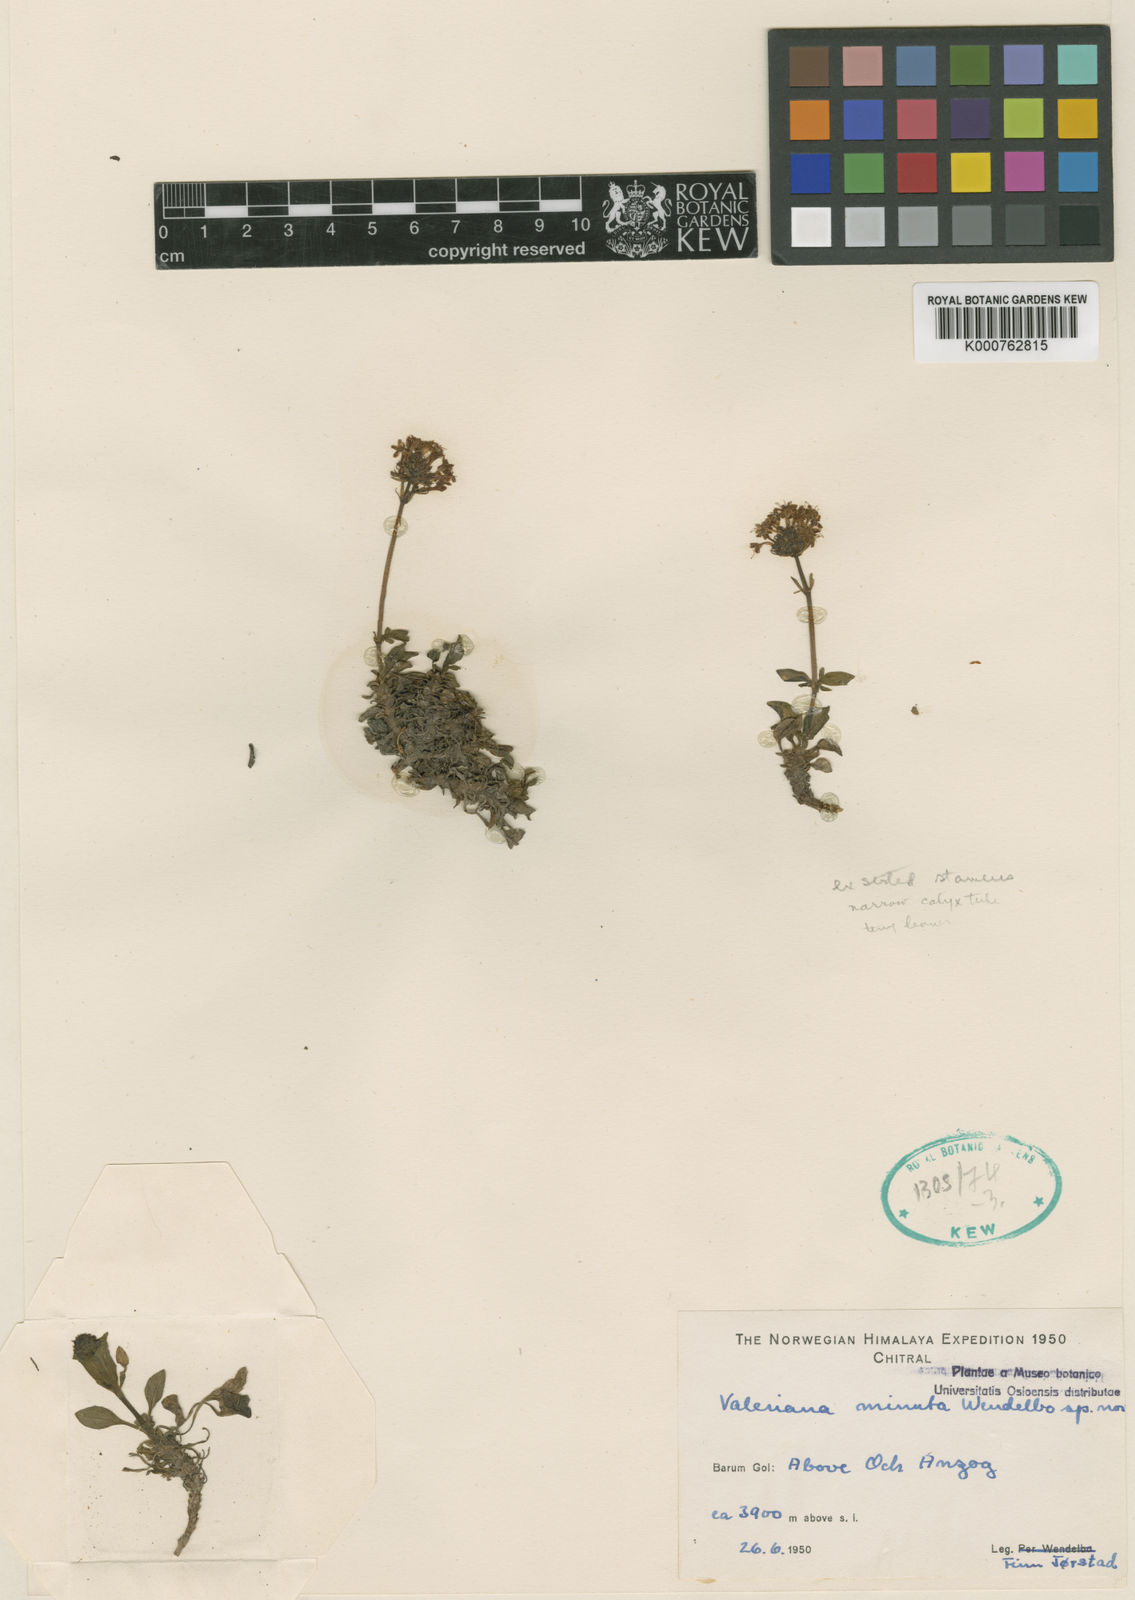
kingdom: Plantae
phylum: Tracheophyta
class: Magnoliopsida
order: Dipsacales
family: Caprifoliaceae
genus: Valeriana
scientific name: Valeriana beddomei
